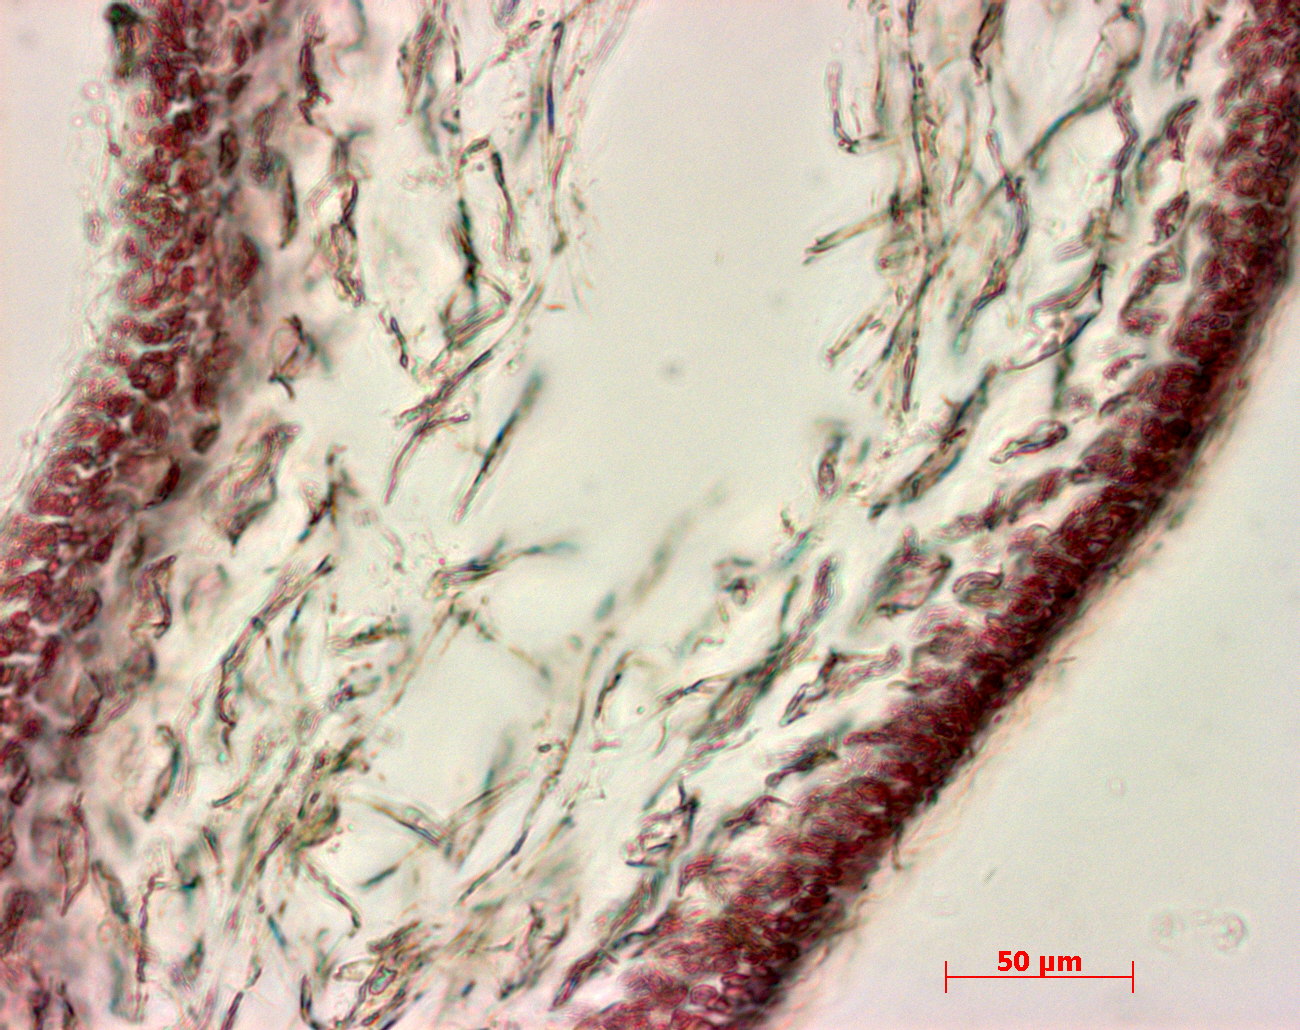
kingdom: Plantae
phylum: Rhodophyta
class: Florideophyceae
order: Gigartinales
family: Kallymeniaceae
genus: Psaromenia
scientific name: Psaromenia berggrenii
